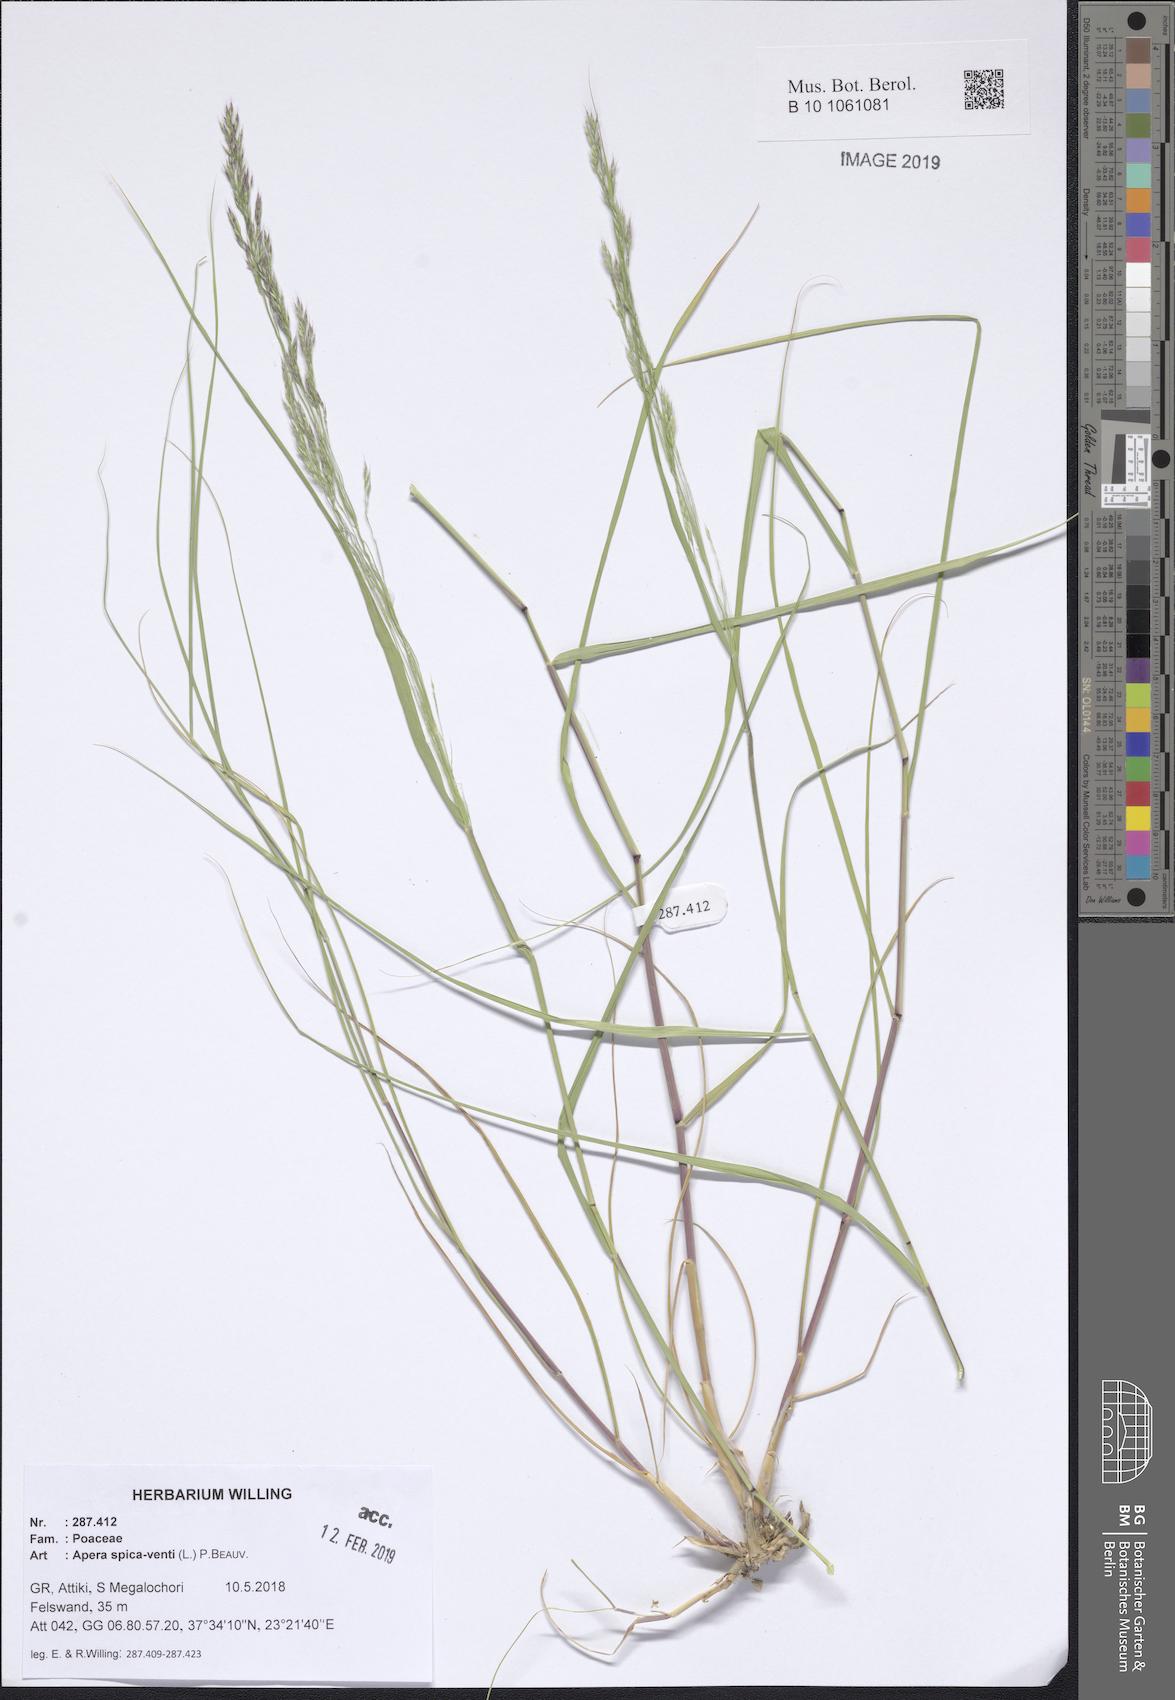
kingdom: Plantae
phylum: Tracheophyta
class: Liliopsida
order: Poales
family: Poaceae
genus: Apera
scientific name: Apera spica-venti
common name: Loose silky-bent
